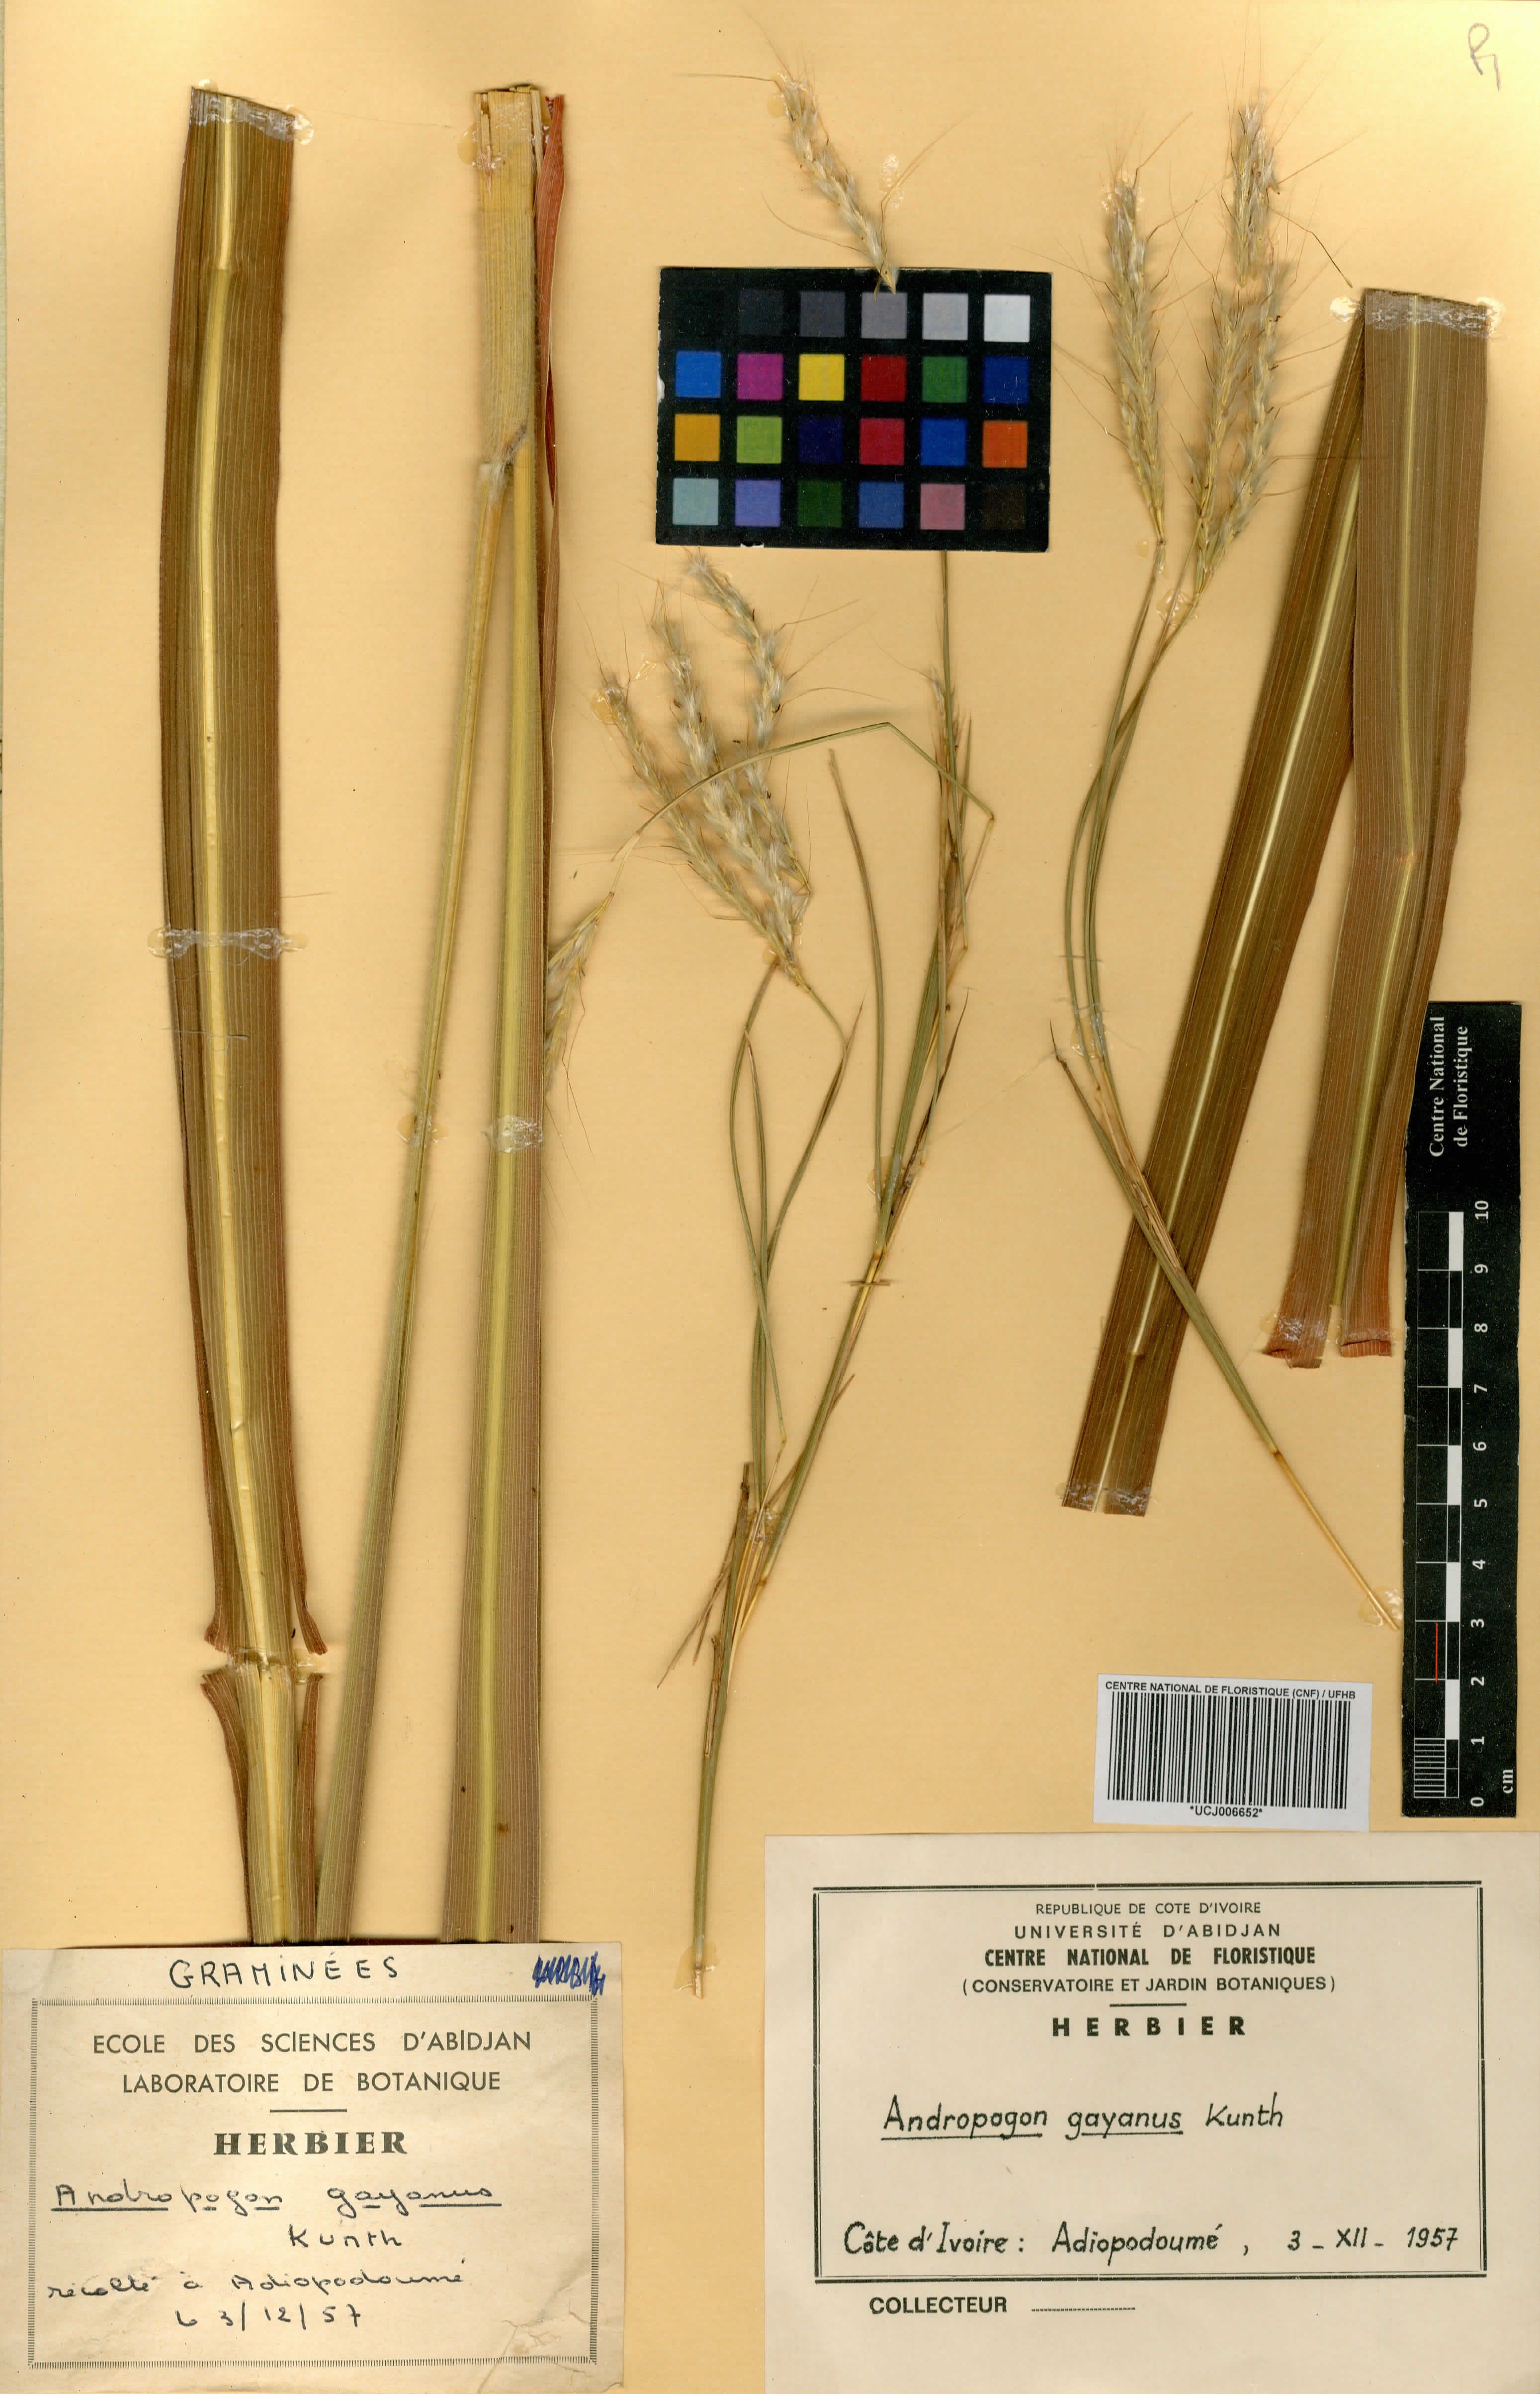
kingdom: Plantae
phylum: Tracheophyta
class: Liliopsida
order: Poales
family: Poaceae
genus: Andropogon
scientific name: Andropogon gayanus
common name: Tambuki grass
